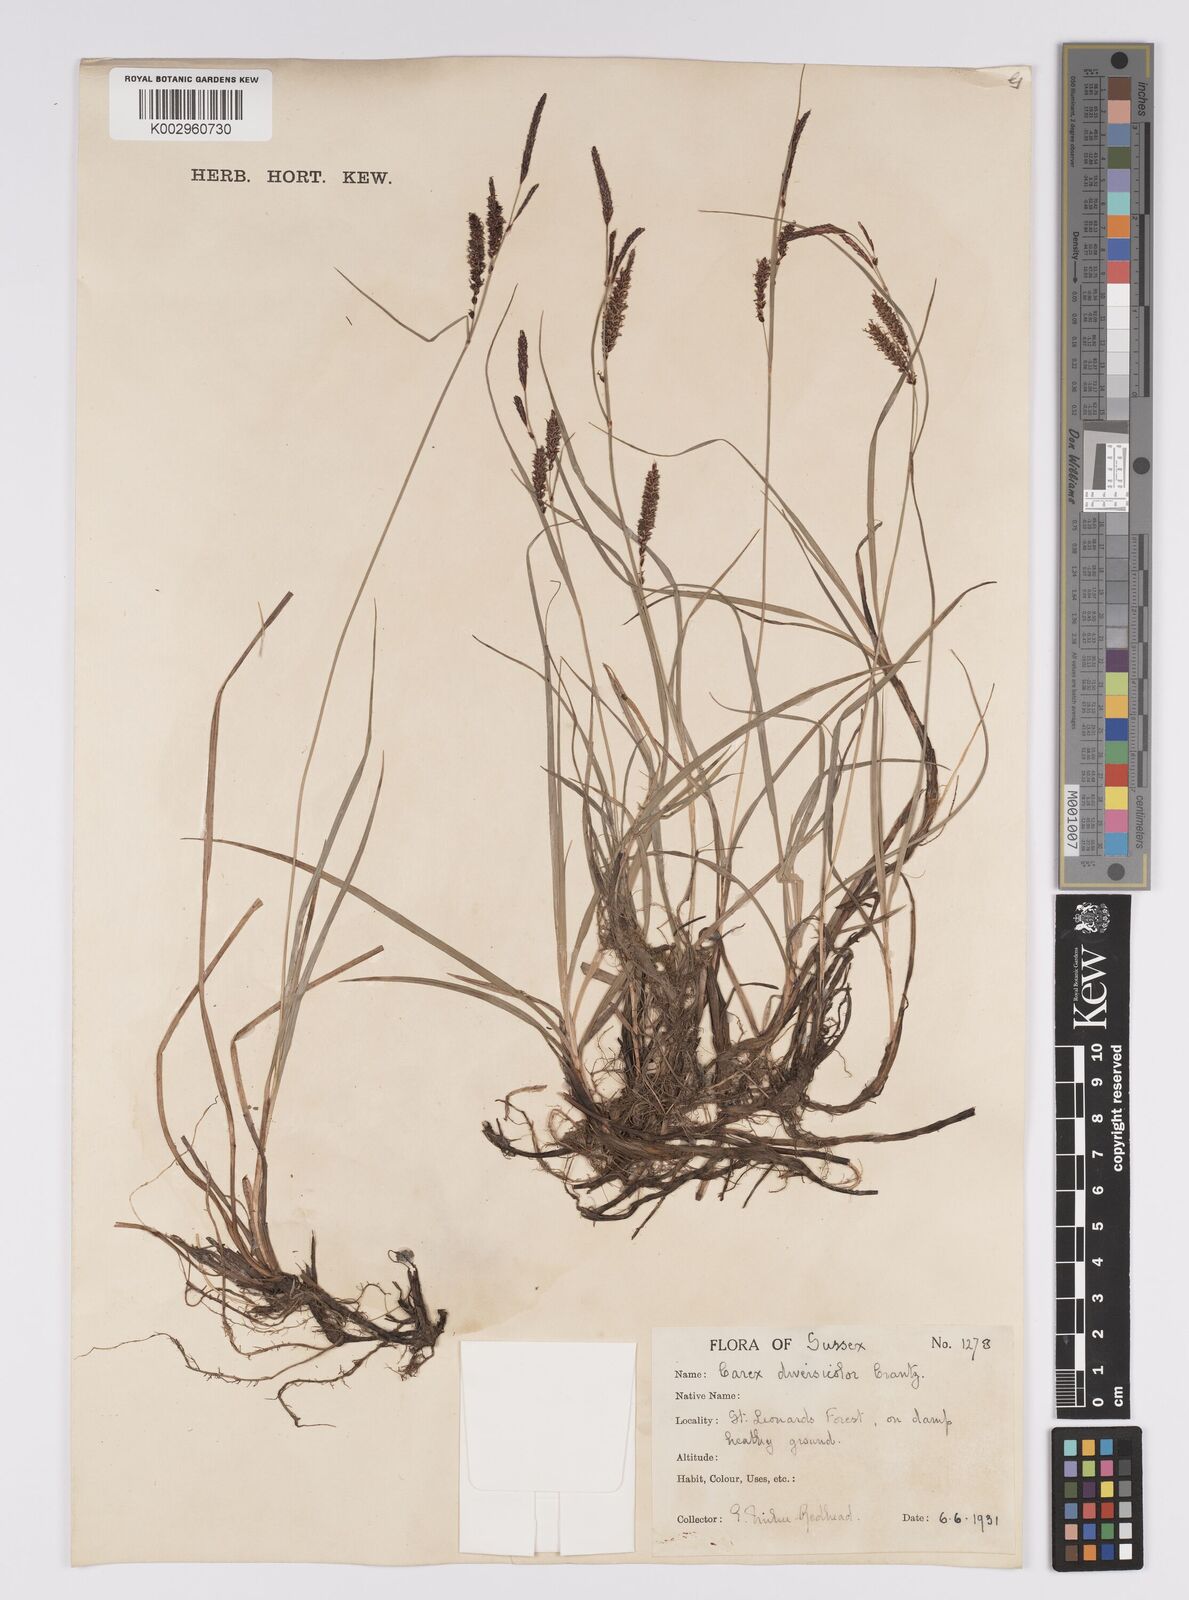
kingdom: Plantae
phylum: Tracheophyta
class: Liliopsida
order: Poales
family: Cyperaceae
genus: Carex
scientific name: Carex acutiformis
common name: Lesser pond-sedge
